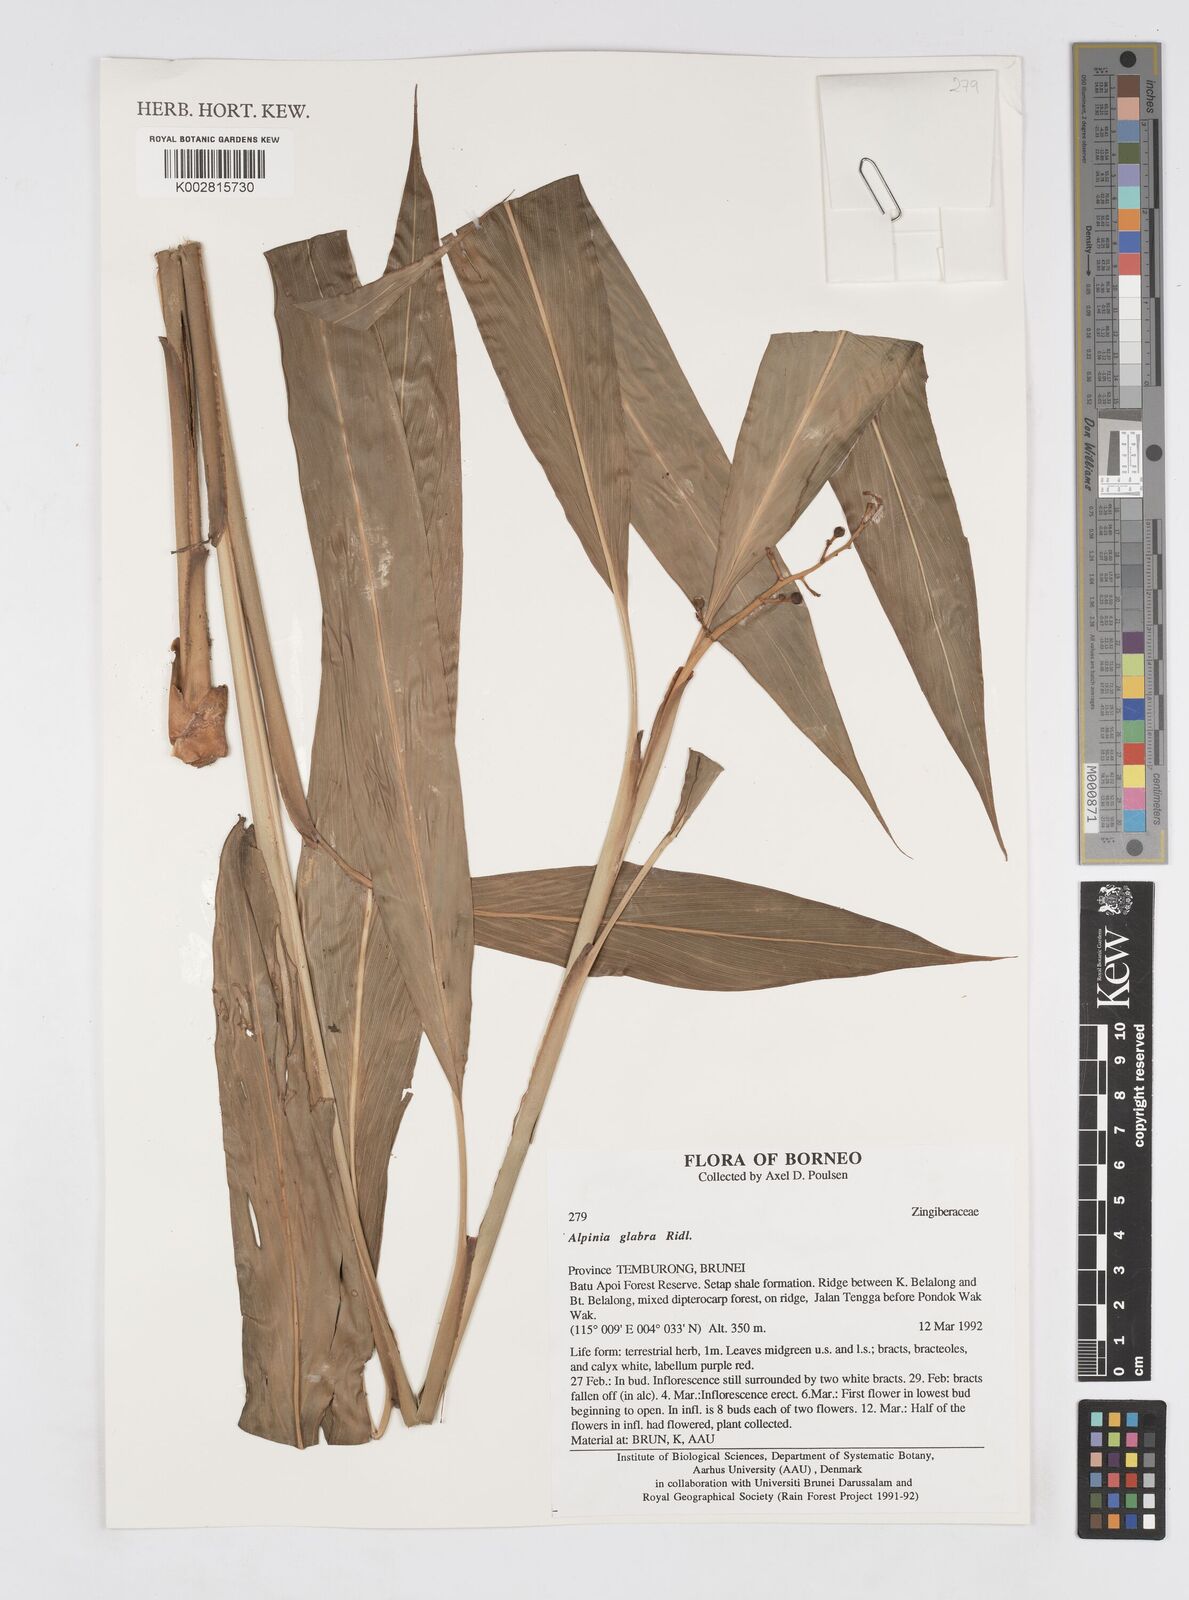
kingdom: Plantae
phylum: Tracheophyta
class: Liliopsida
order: Zingiberales
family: Zingiberaceae
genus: Alpinia
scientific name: Alpinia glabra
